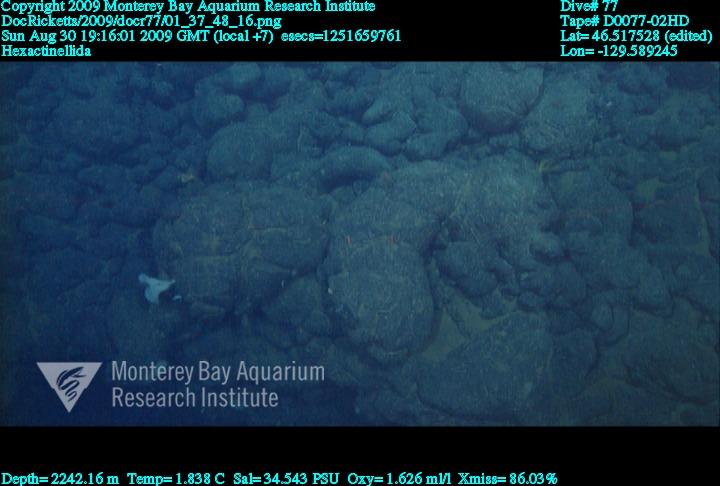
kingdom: Animalia
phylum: Porifera
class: Hexactinellida
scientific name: Hexactinellida
